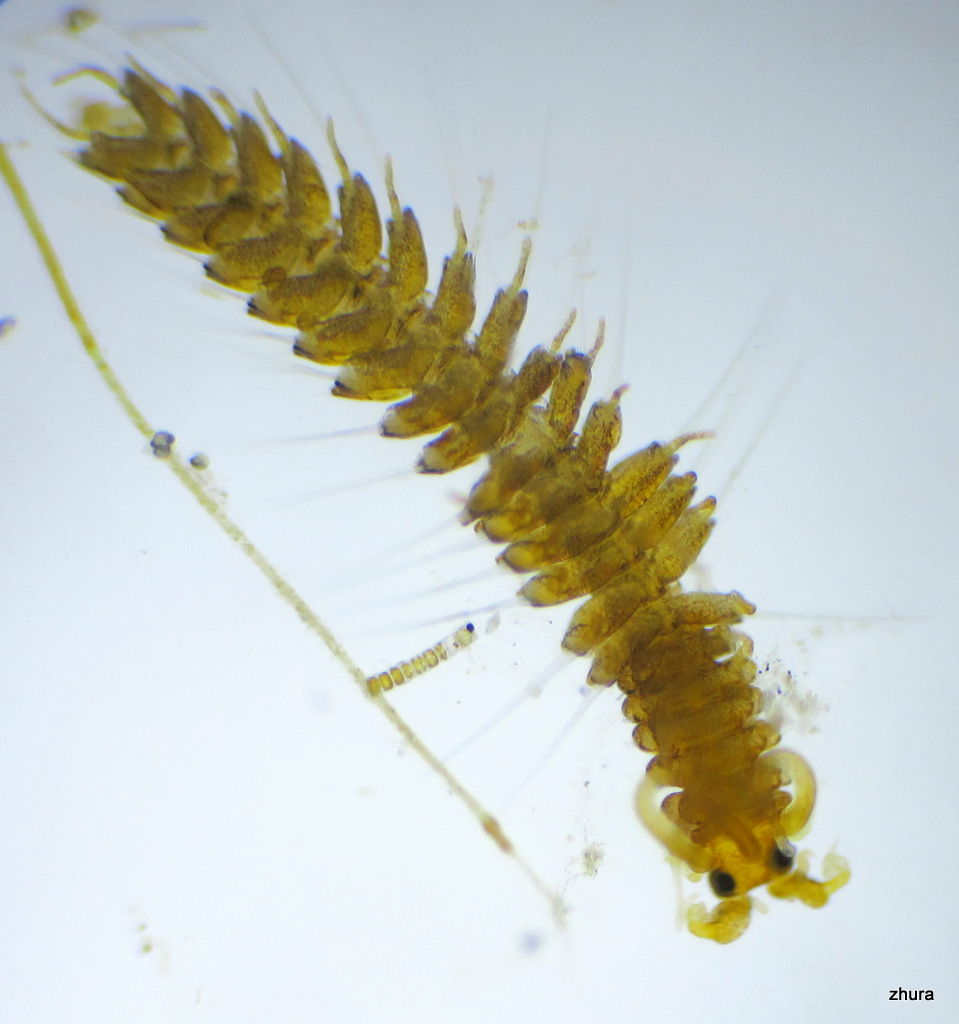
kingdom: Animalia
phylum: Annelida
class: Polychaeta
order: Phyllodocida
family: Syllidae
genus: Proceraea
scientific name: Proceraea prismatica
